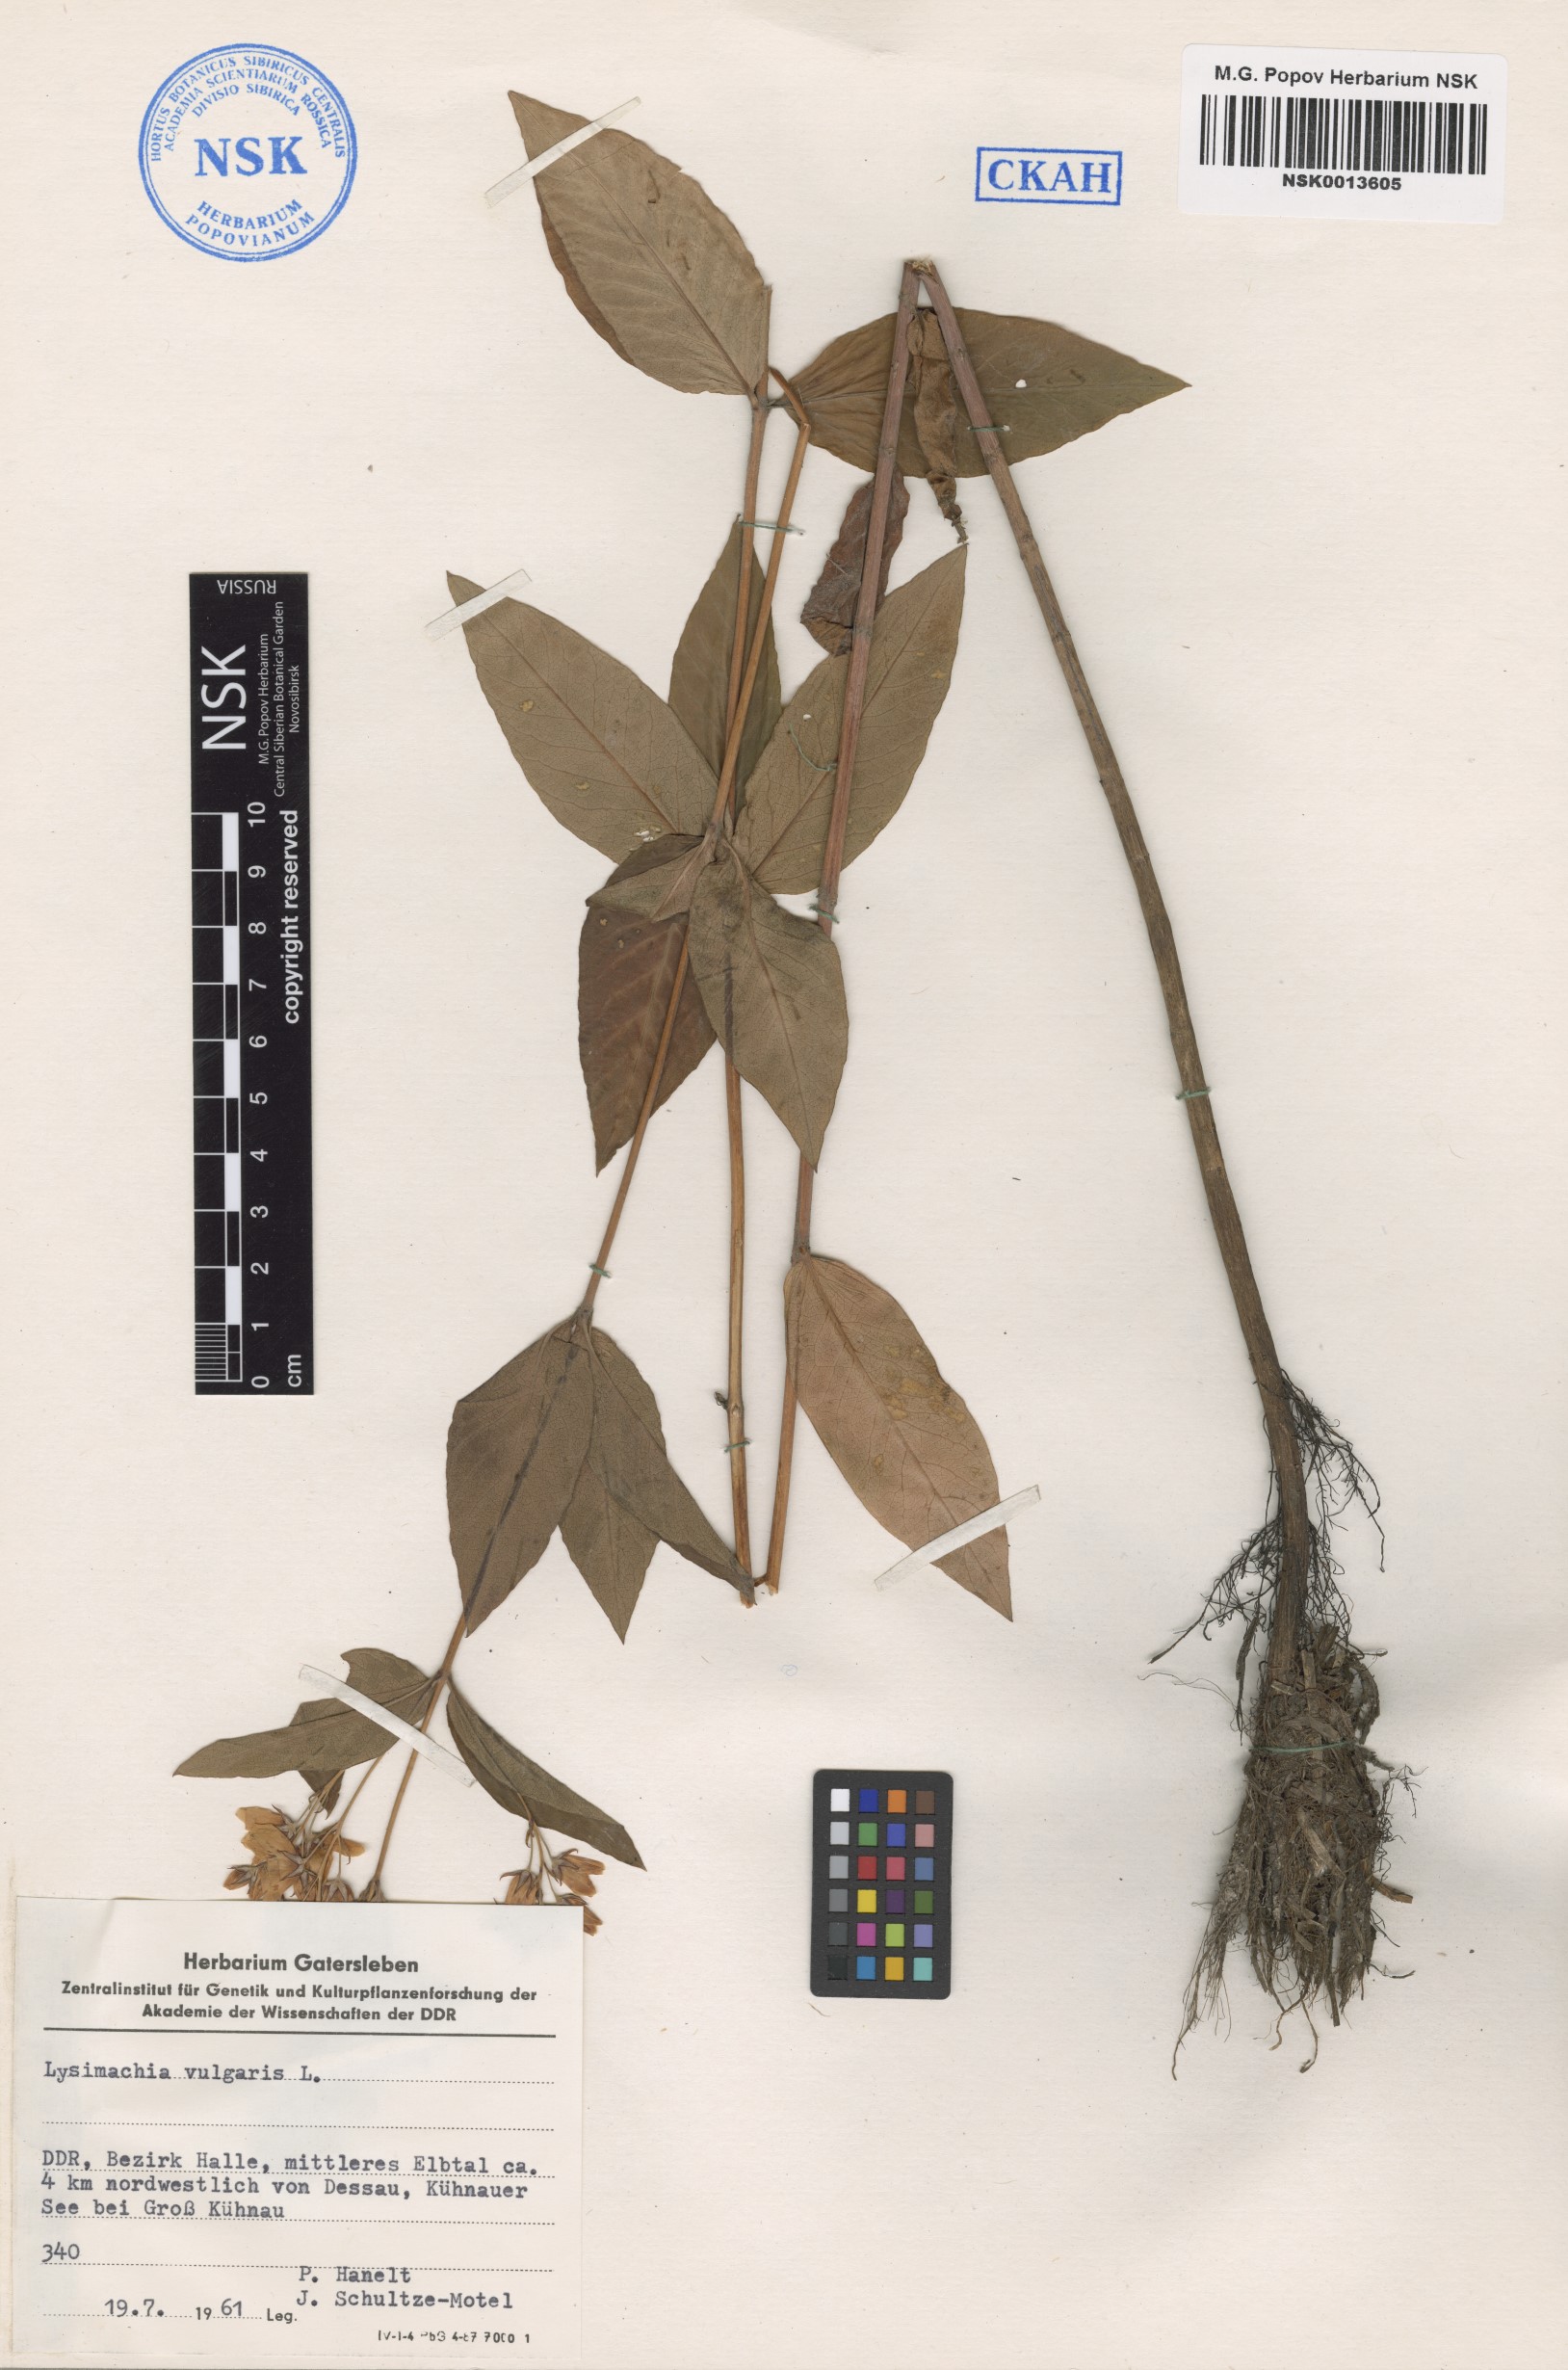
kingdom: Plantae
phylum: Tracheophyta
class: Magnoliopsida
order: Ericales
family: Primulaceae
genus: Lysimachia
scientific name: Lysimachia vulgaris
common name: Yellow loosestrife
